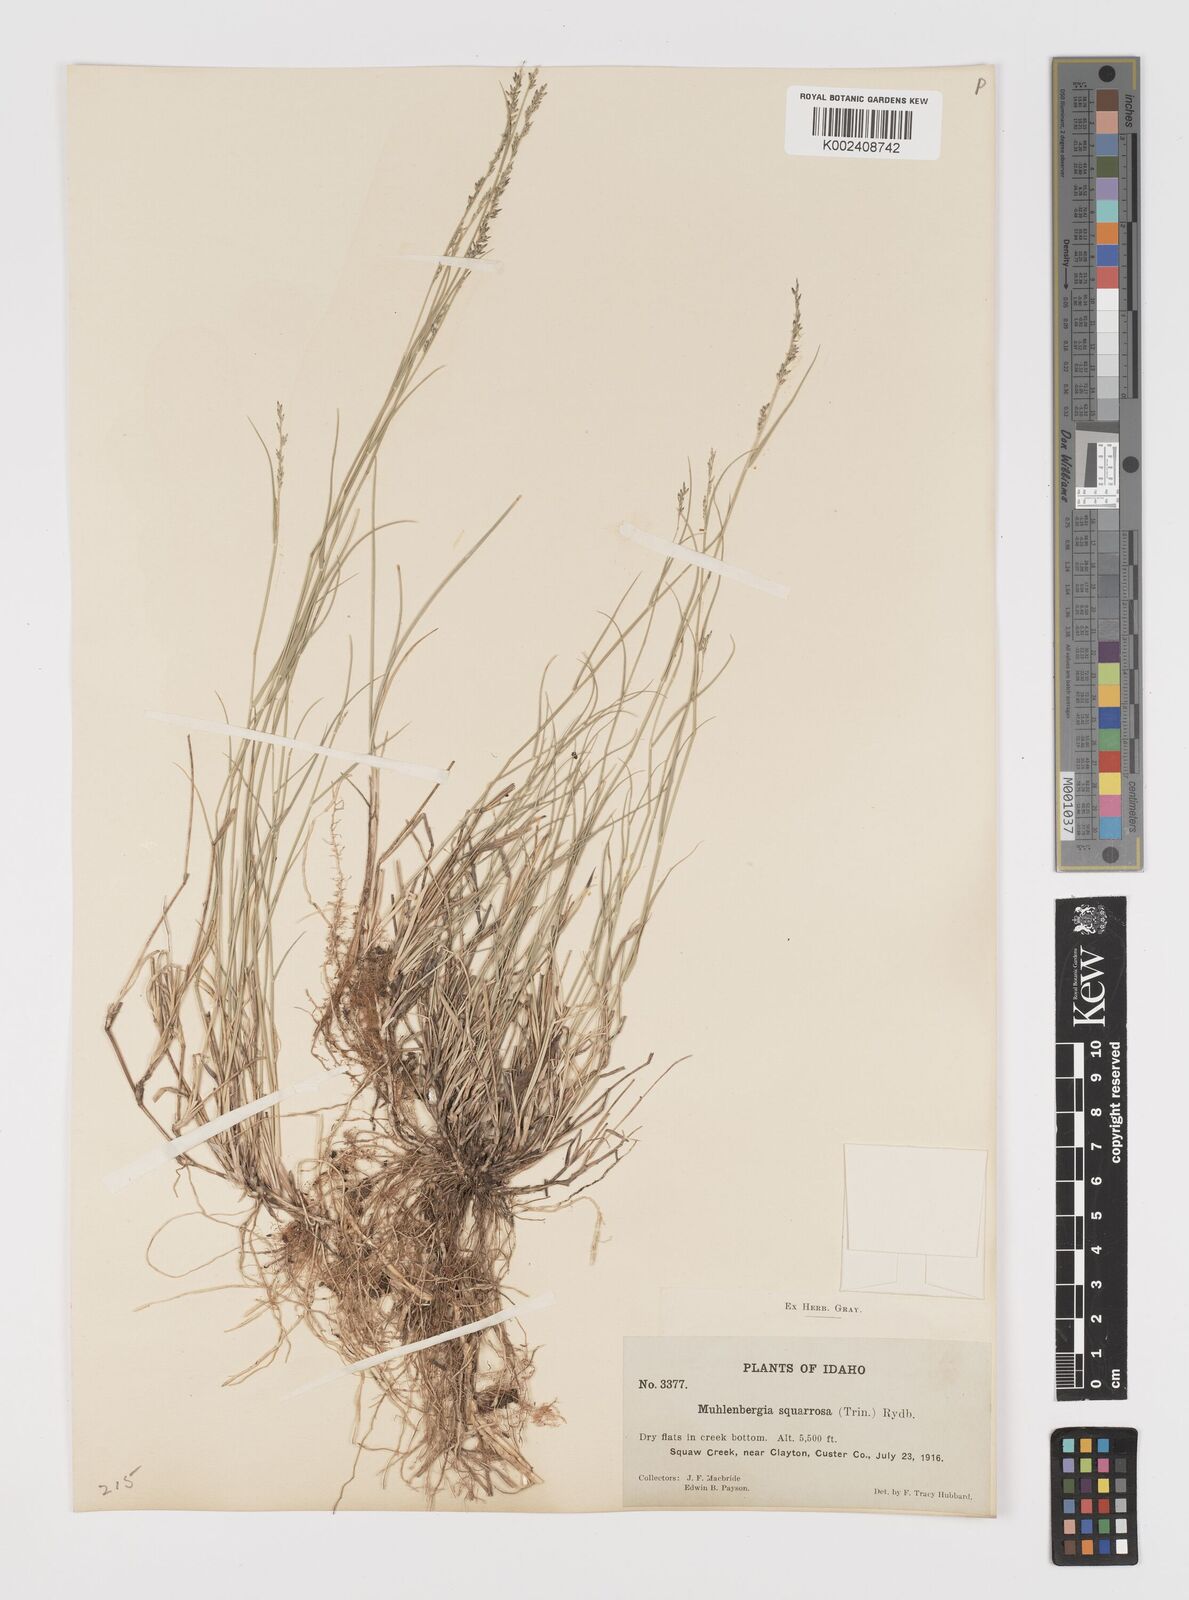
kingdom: Plantae
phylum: Tracheophyta
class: Liliopsida
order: Poales
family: Poaceae
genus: Muhlenbergia
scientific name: Muhlenbergia richardsonis
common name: Mat muhly
